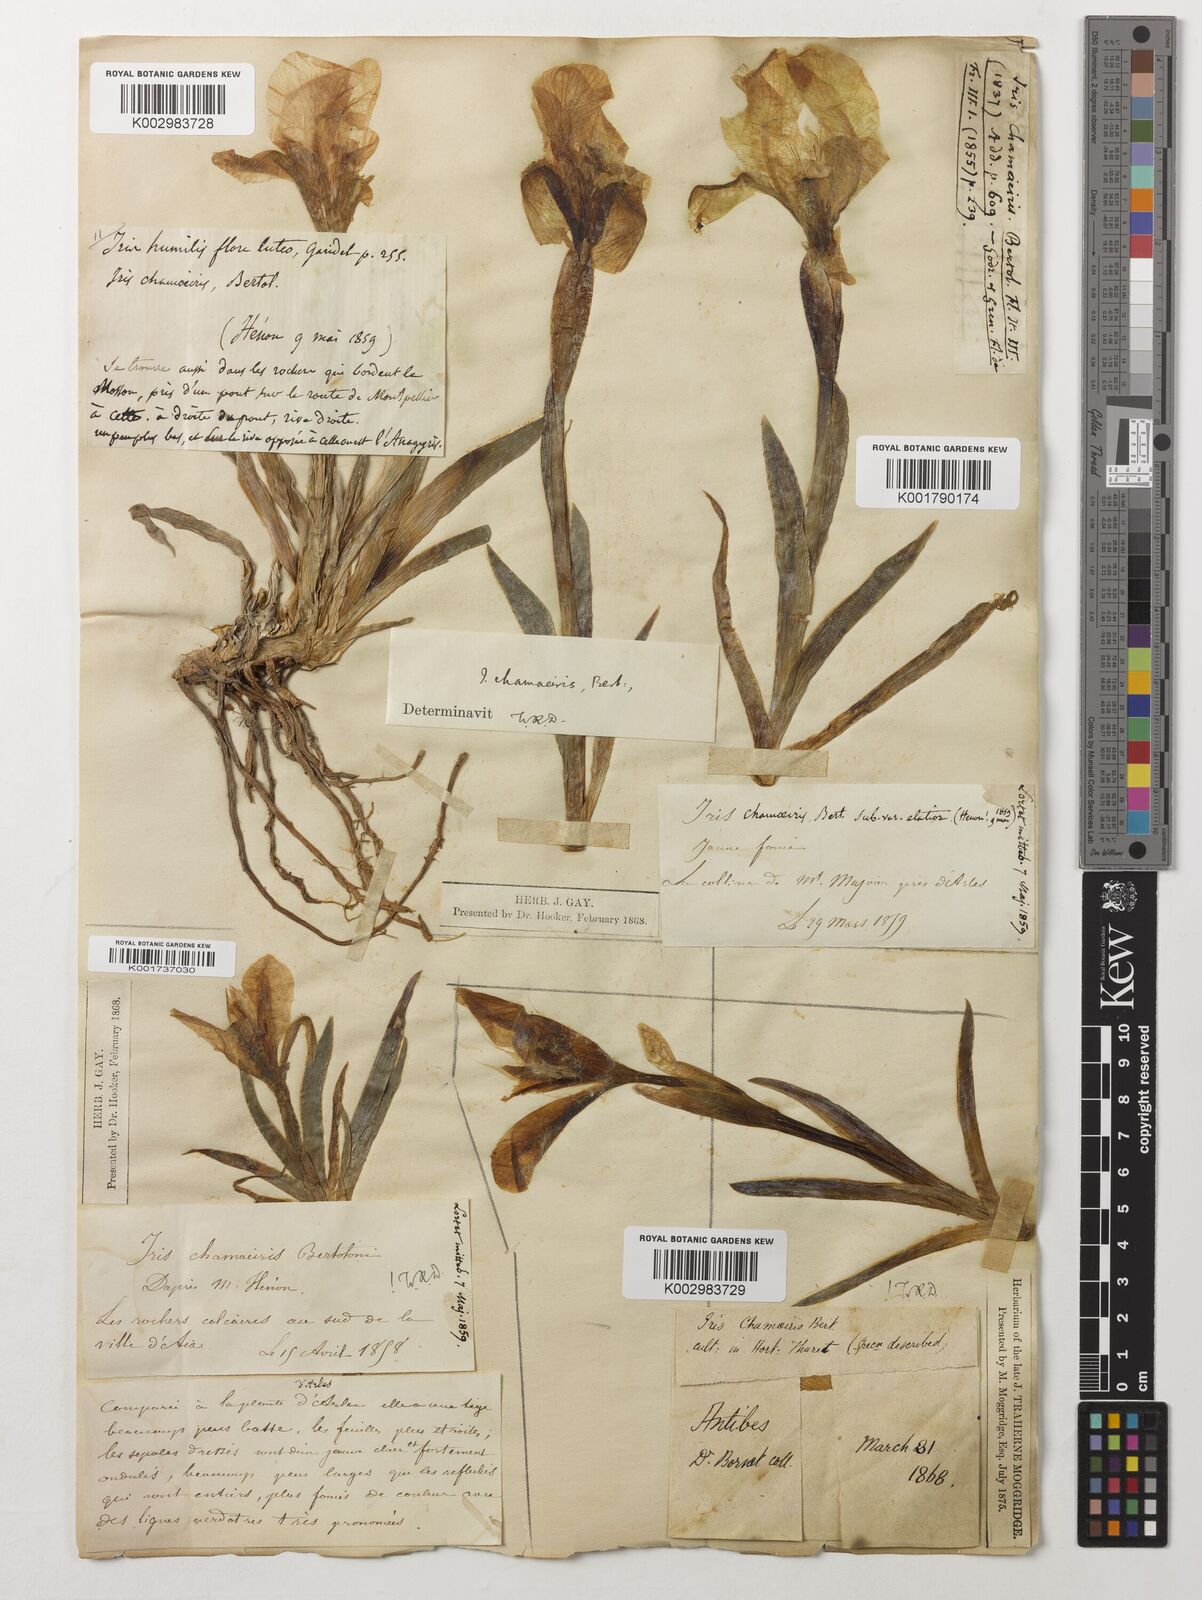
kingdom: Plantae
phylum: Tracheophyta
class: Liliopsida
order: Asparagales
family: Iridaceae
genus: Iris
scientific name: Iris lutescens
